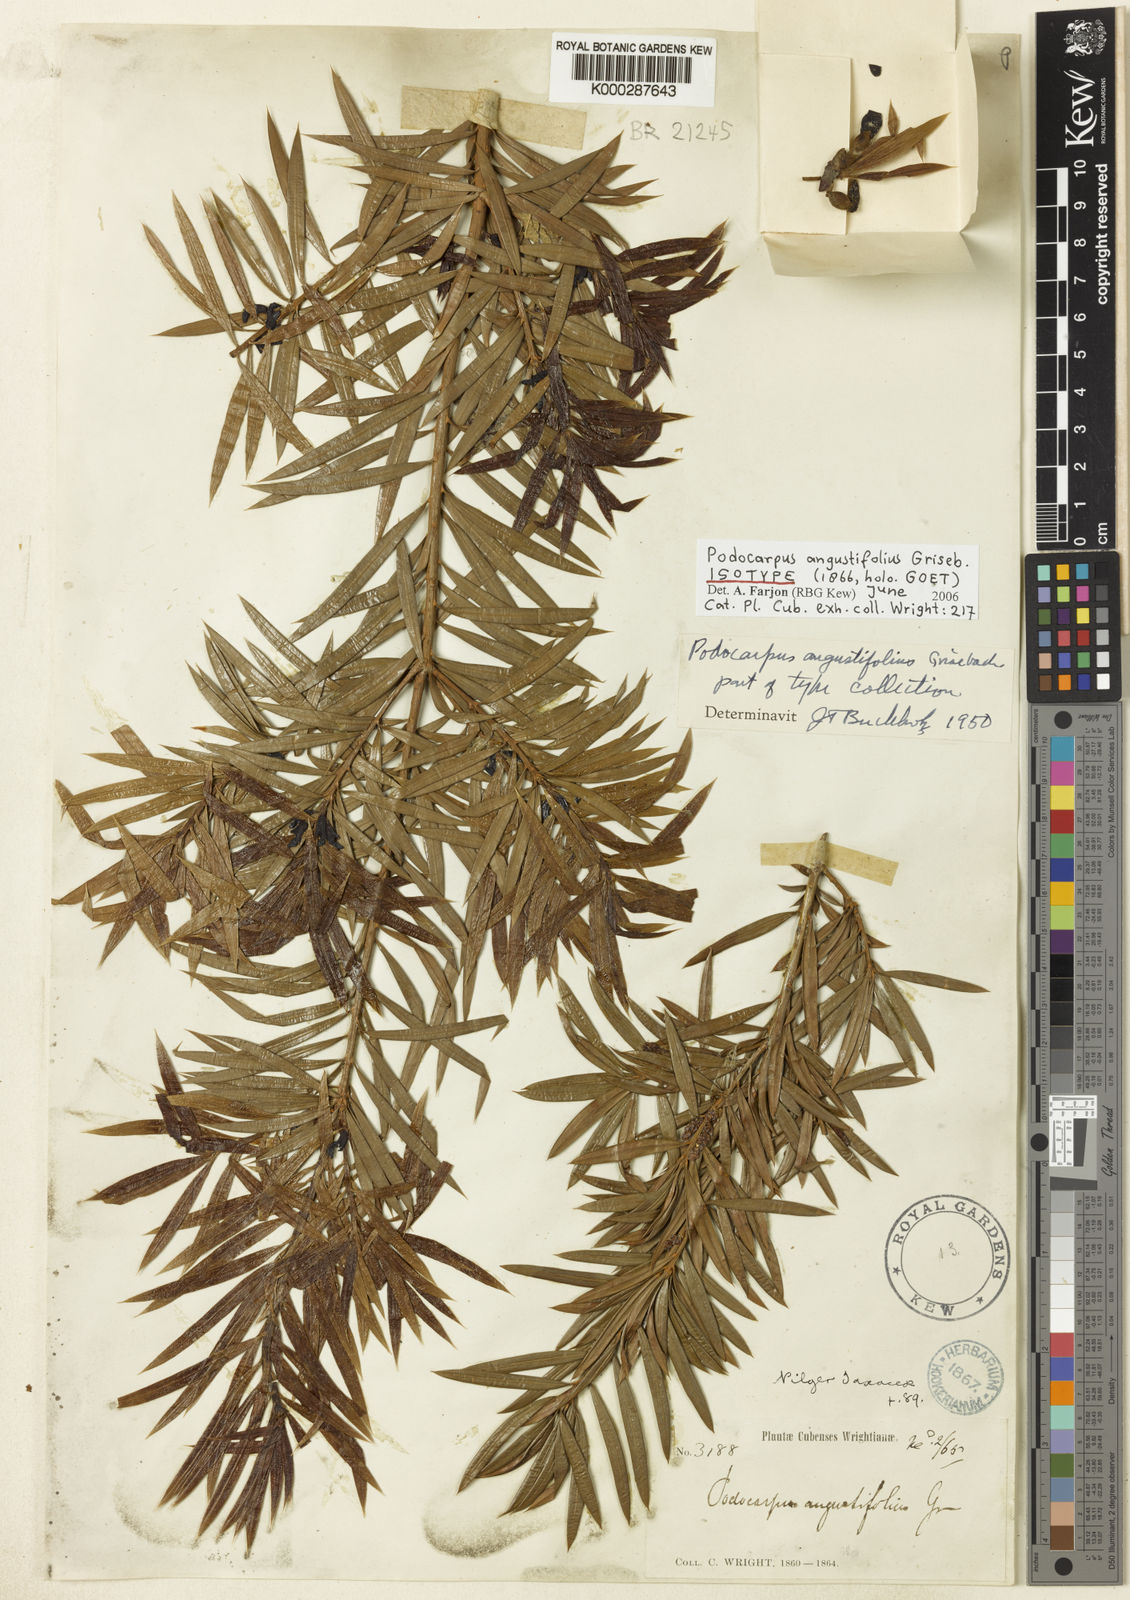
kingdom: Plantae
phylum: Tracheophyta
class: Pinopsida
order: Pinales
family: Podocarpaceae
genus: Podocarpus
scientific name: Podocarpus angustifolius
